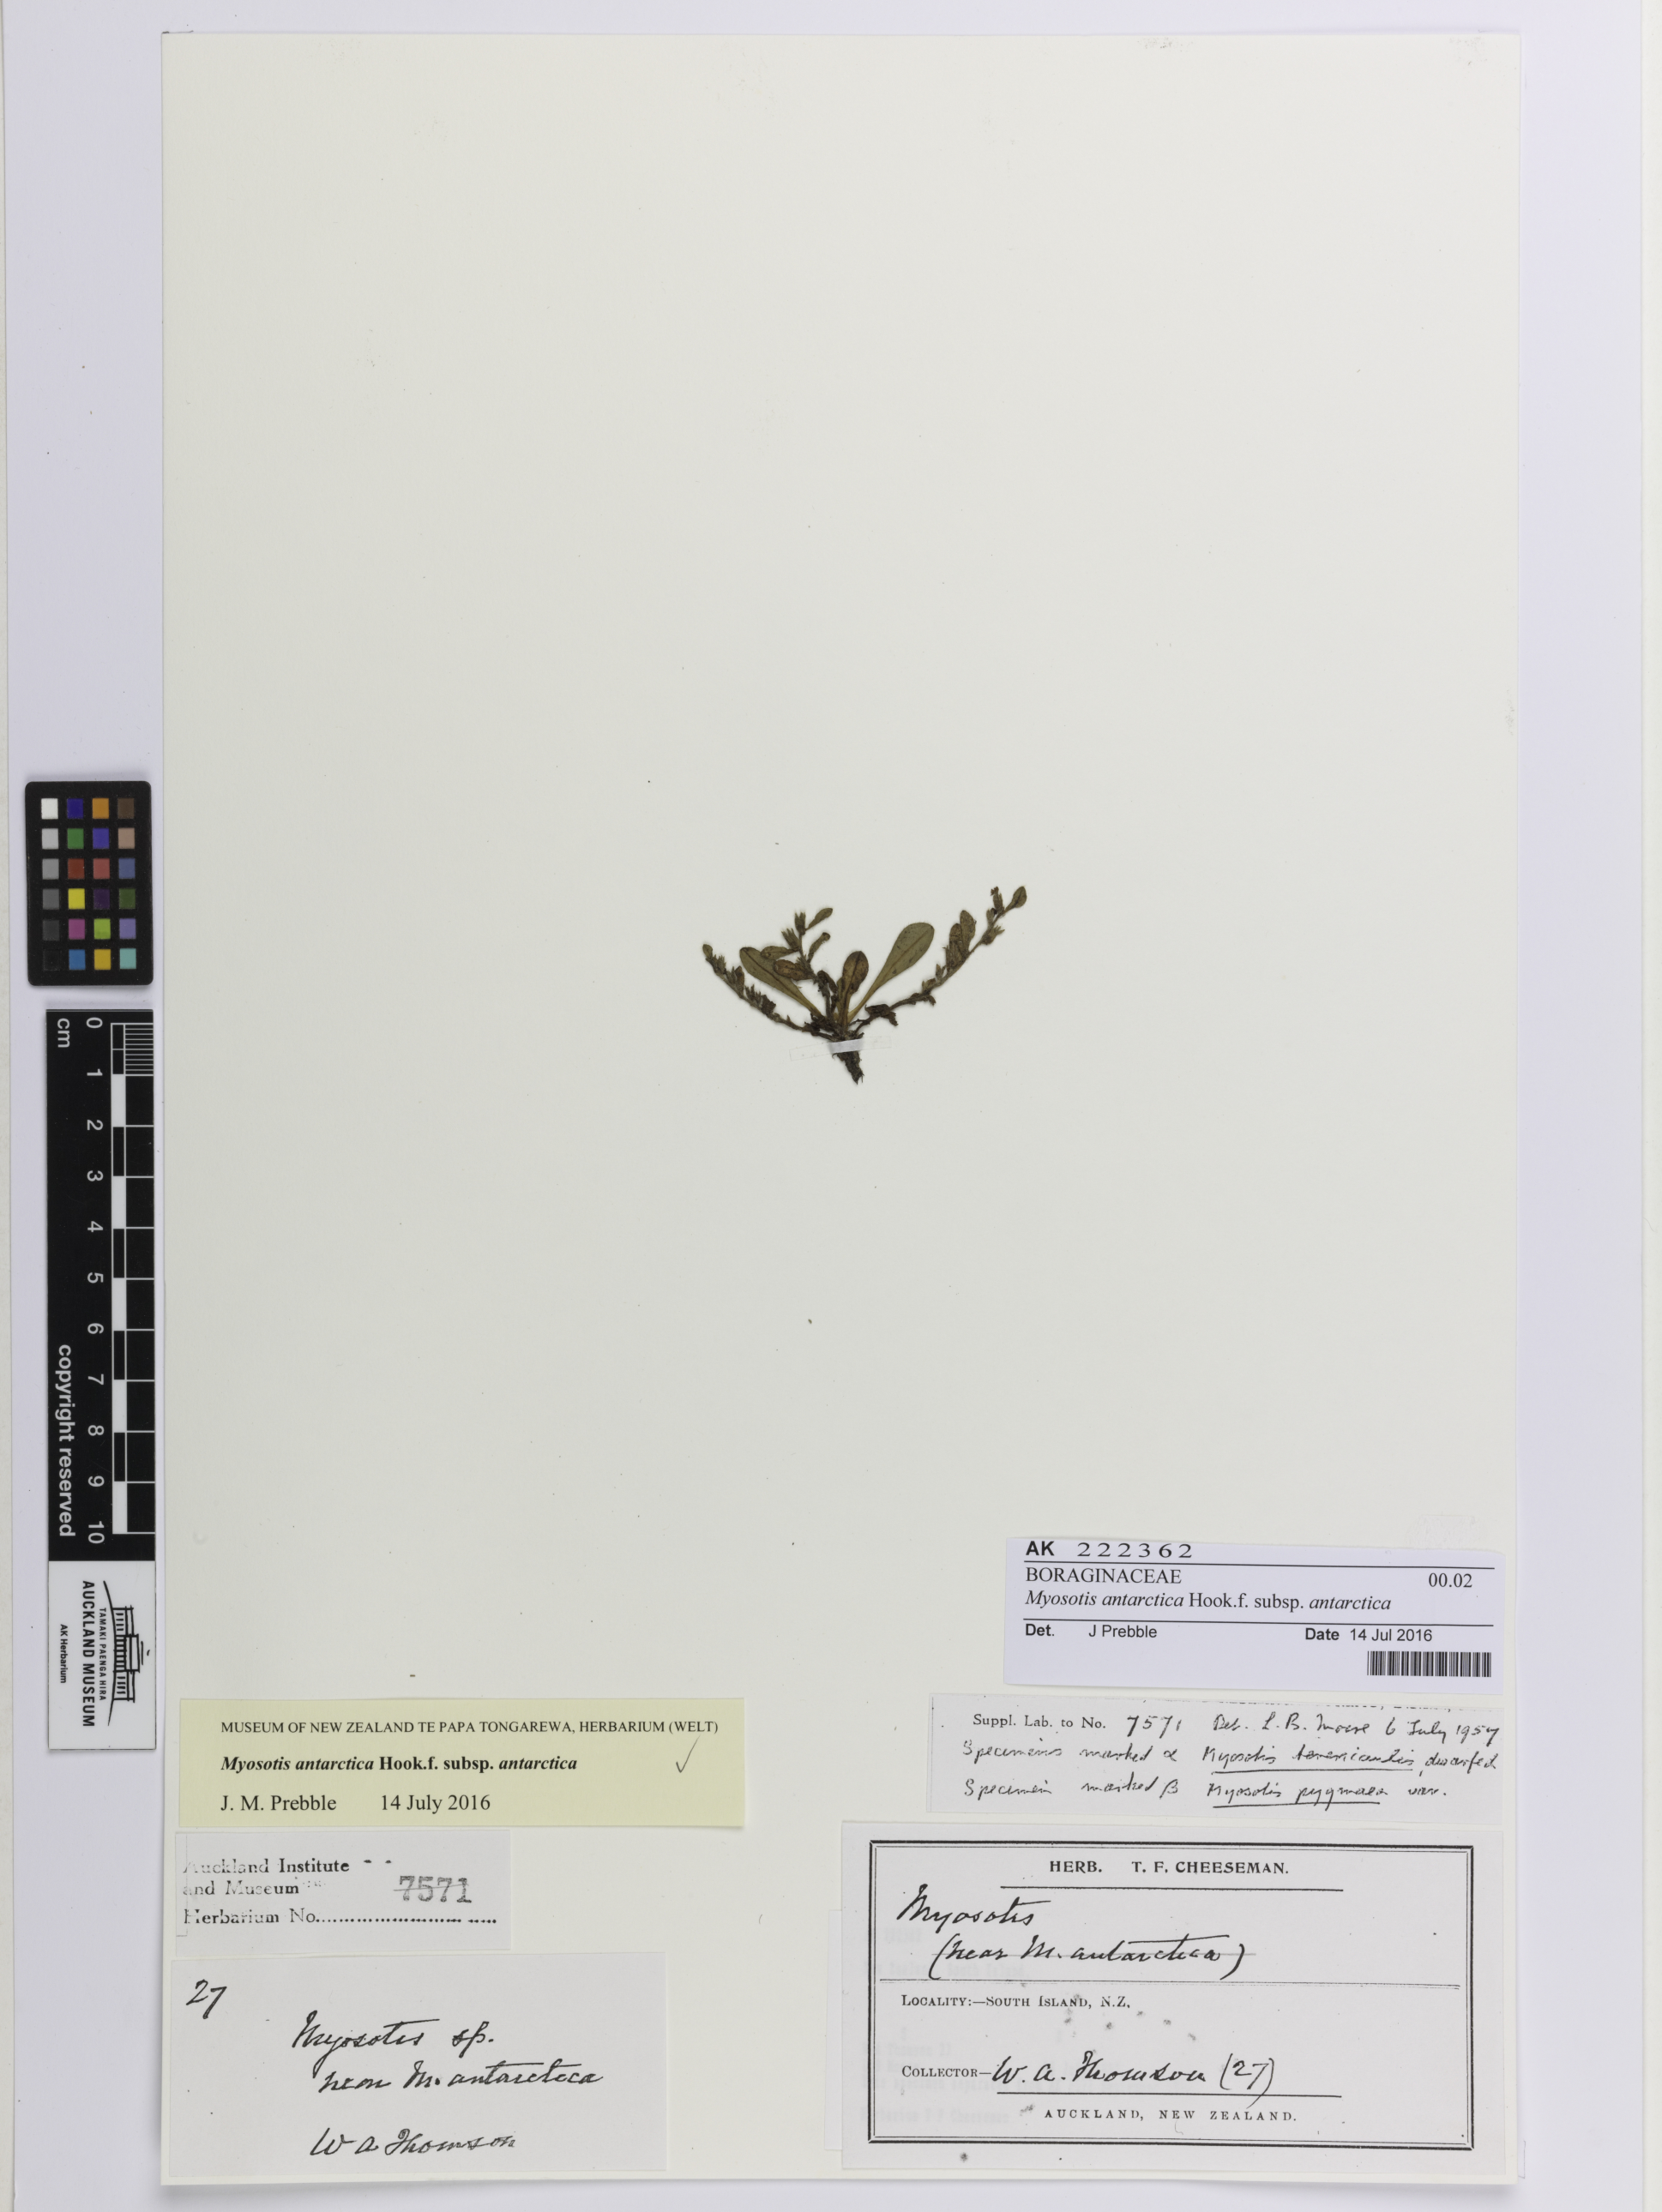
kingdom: Plantae
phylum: Tracheophyta
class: Magnoliopsida
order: Boraginales
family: Boraginaceae
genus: Myosotis
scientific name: Myosotis antarctica
